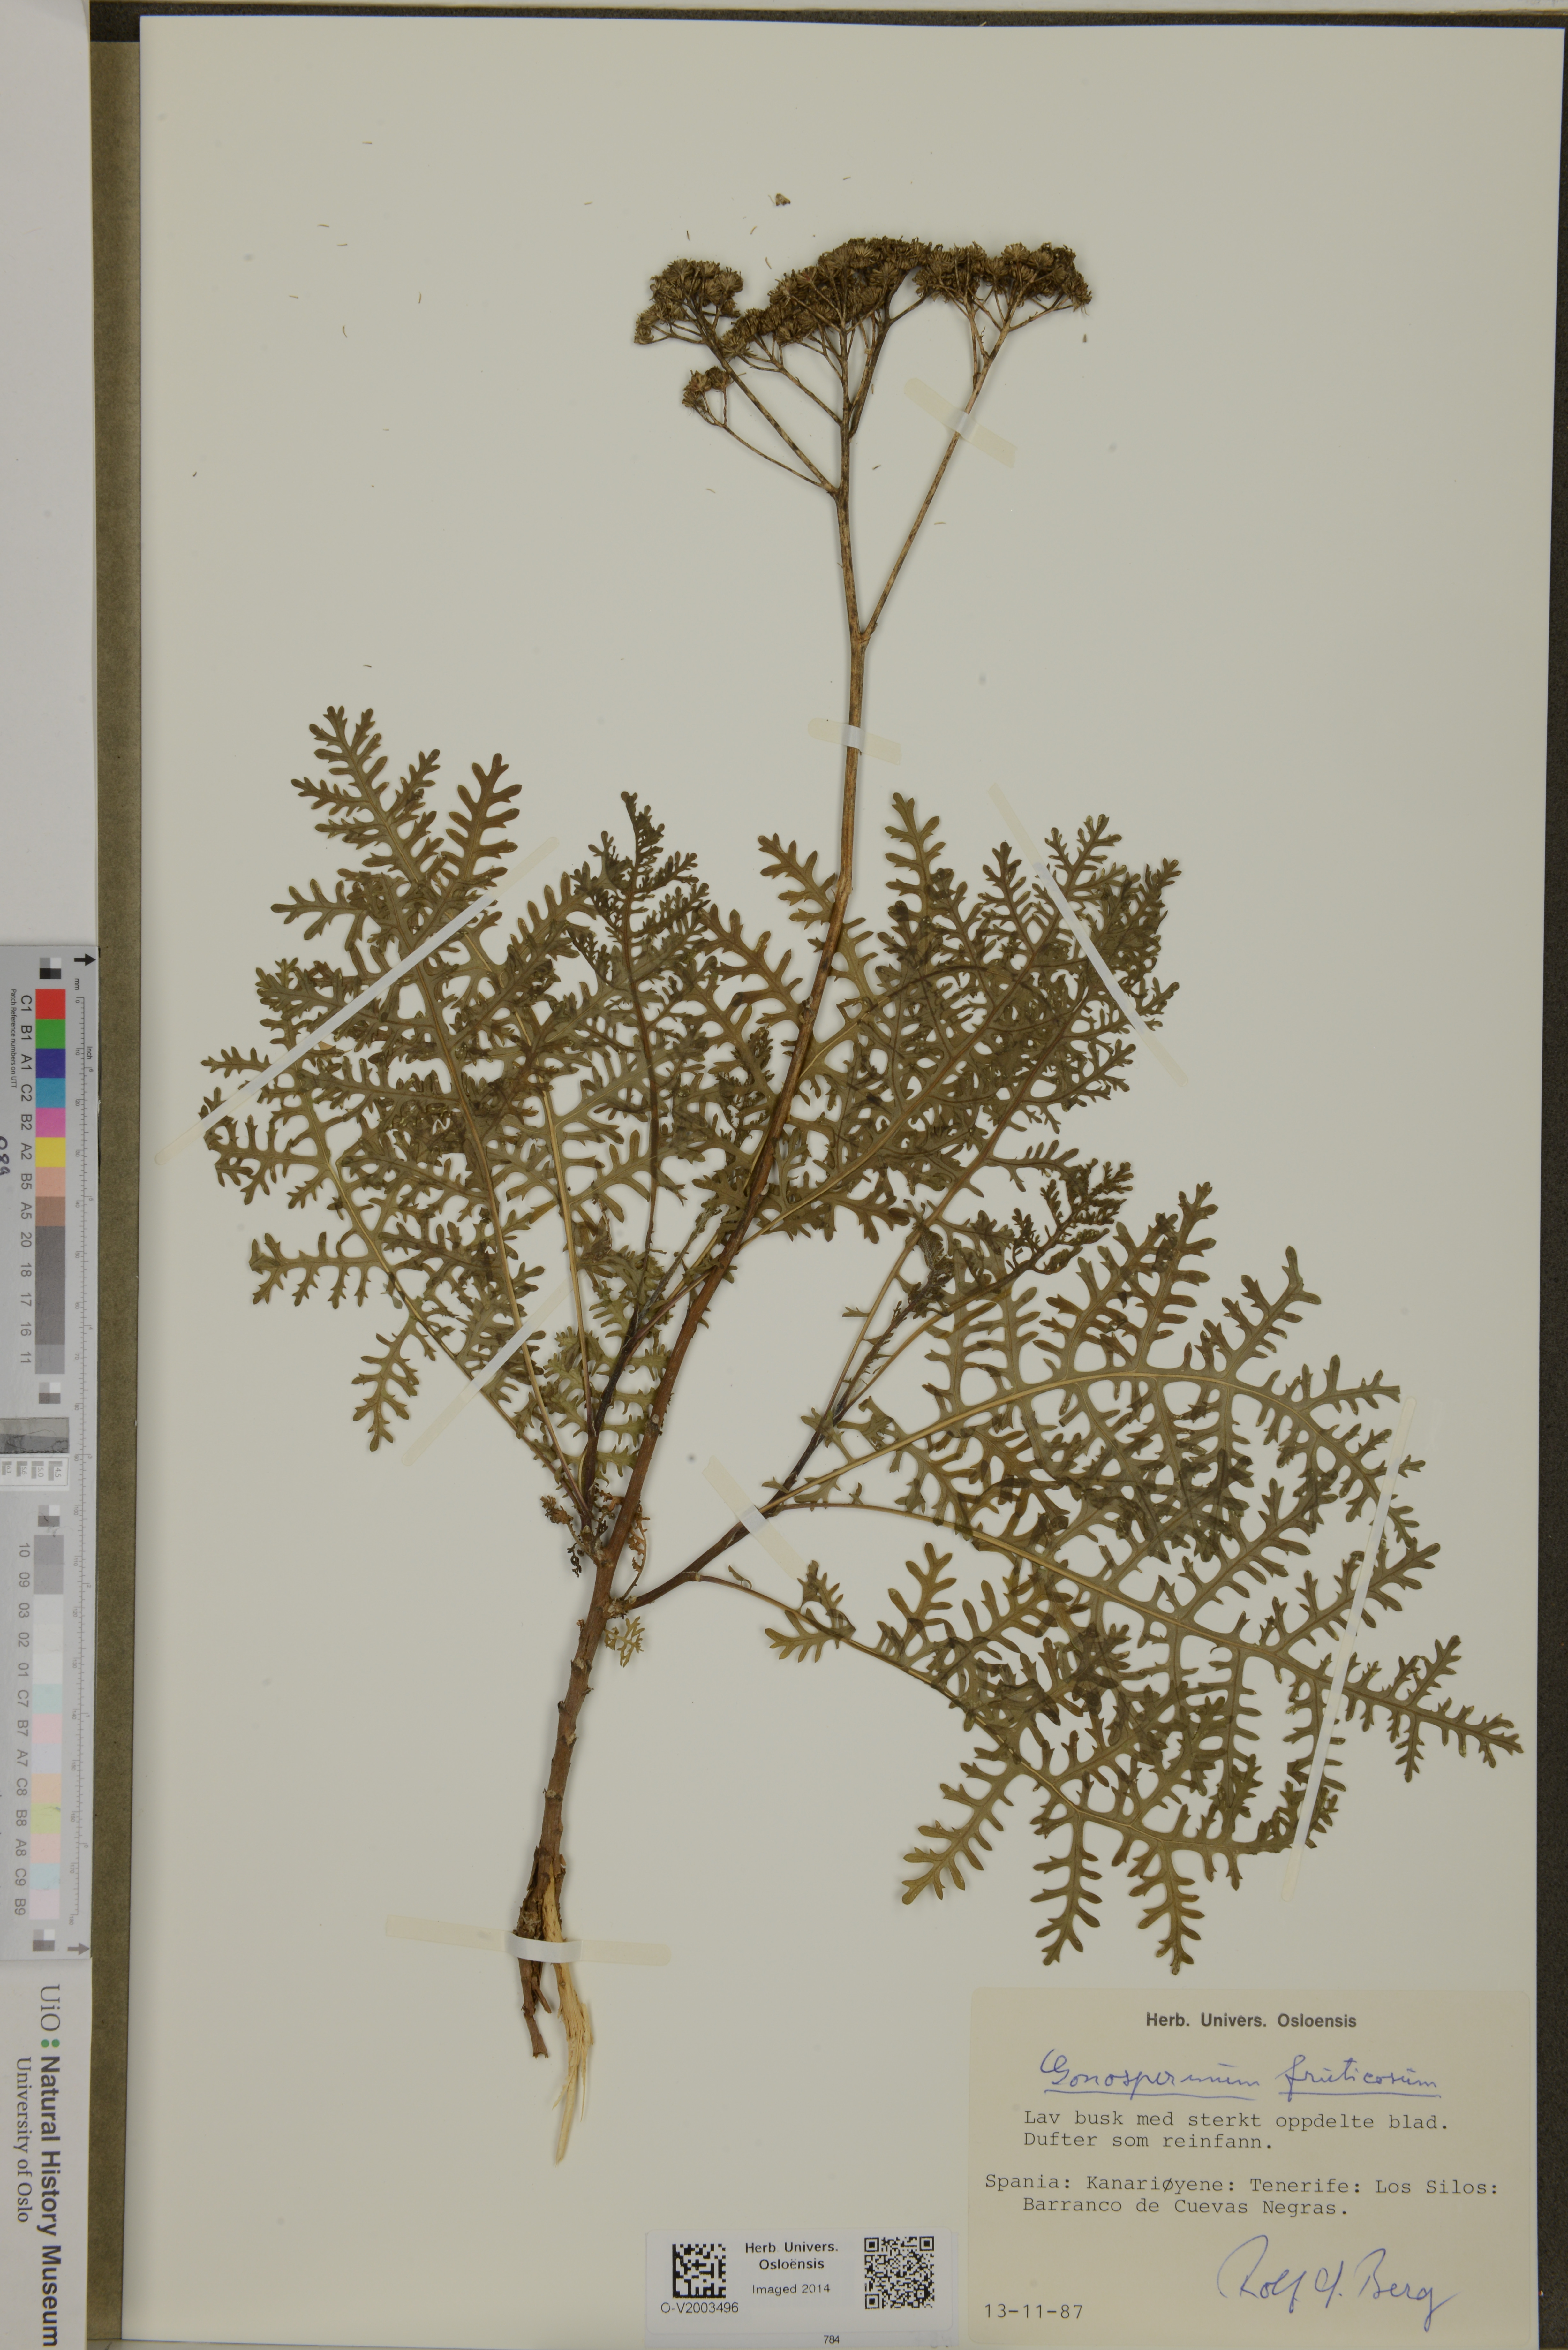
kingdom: Plantae
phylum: Tracheophyta
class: Magnoliopsida
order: Asterales
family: Asteraceae
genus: Gonospermum
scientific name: Gonospermum fruticosum
